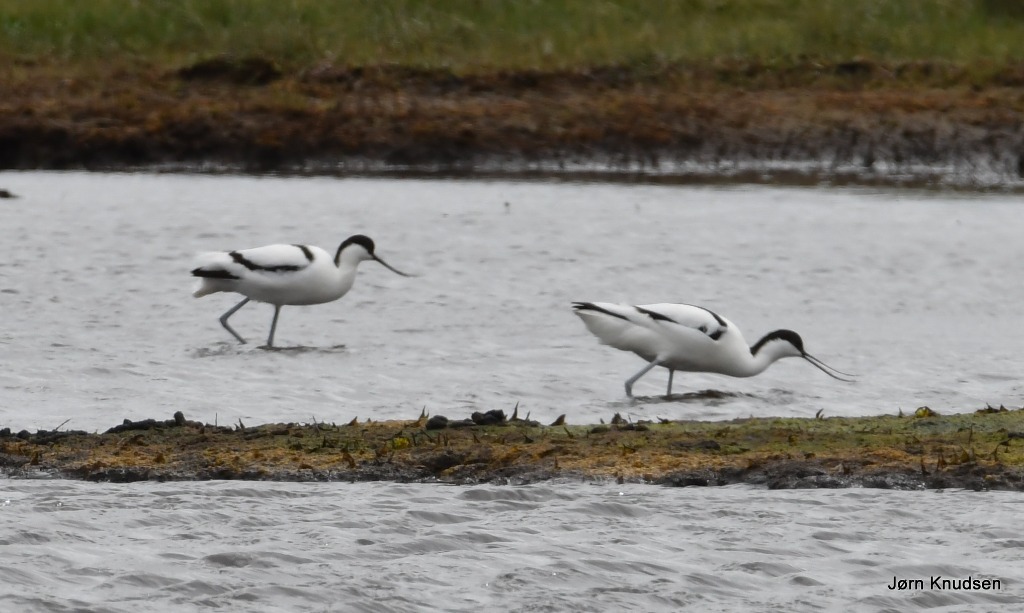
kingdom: Animalia
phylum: Chordata
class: Aves
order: Charadriiformes
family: Recurvirostridae
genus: Recurvirostra
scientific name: Recurvirostra avosetta
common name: Klyde
